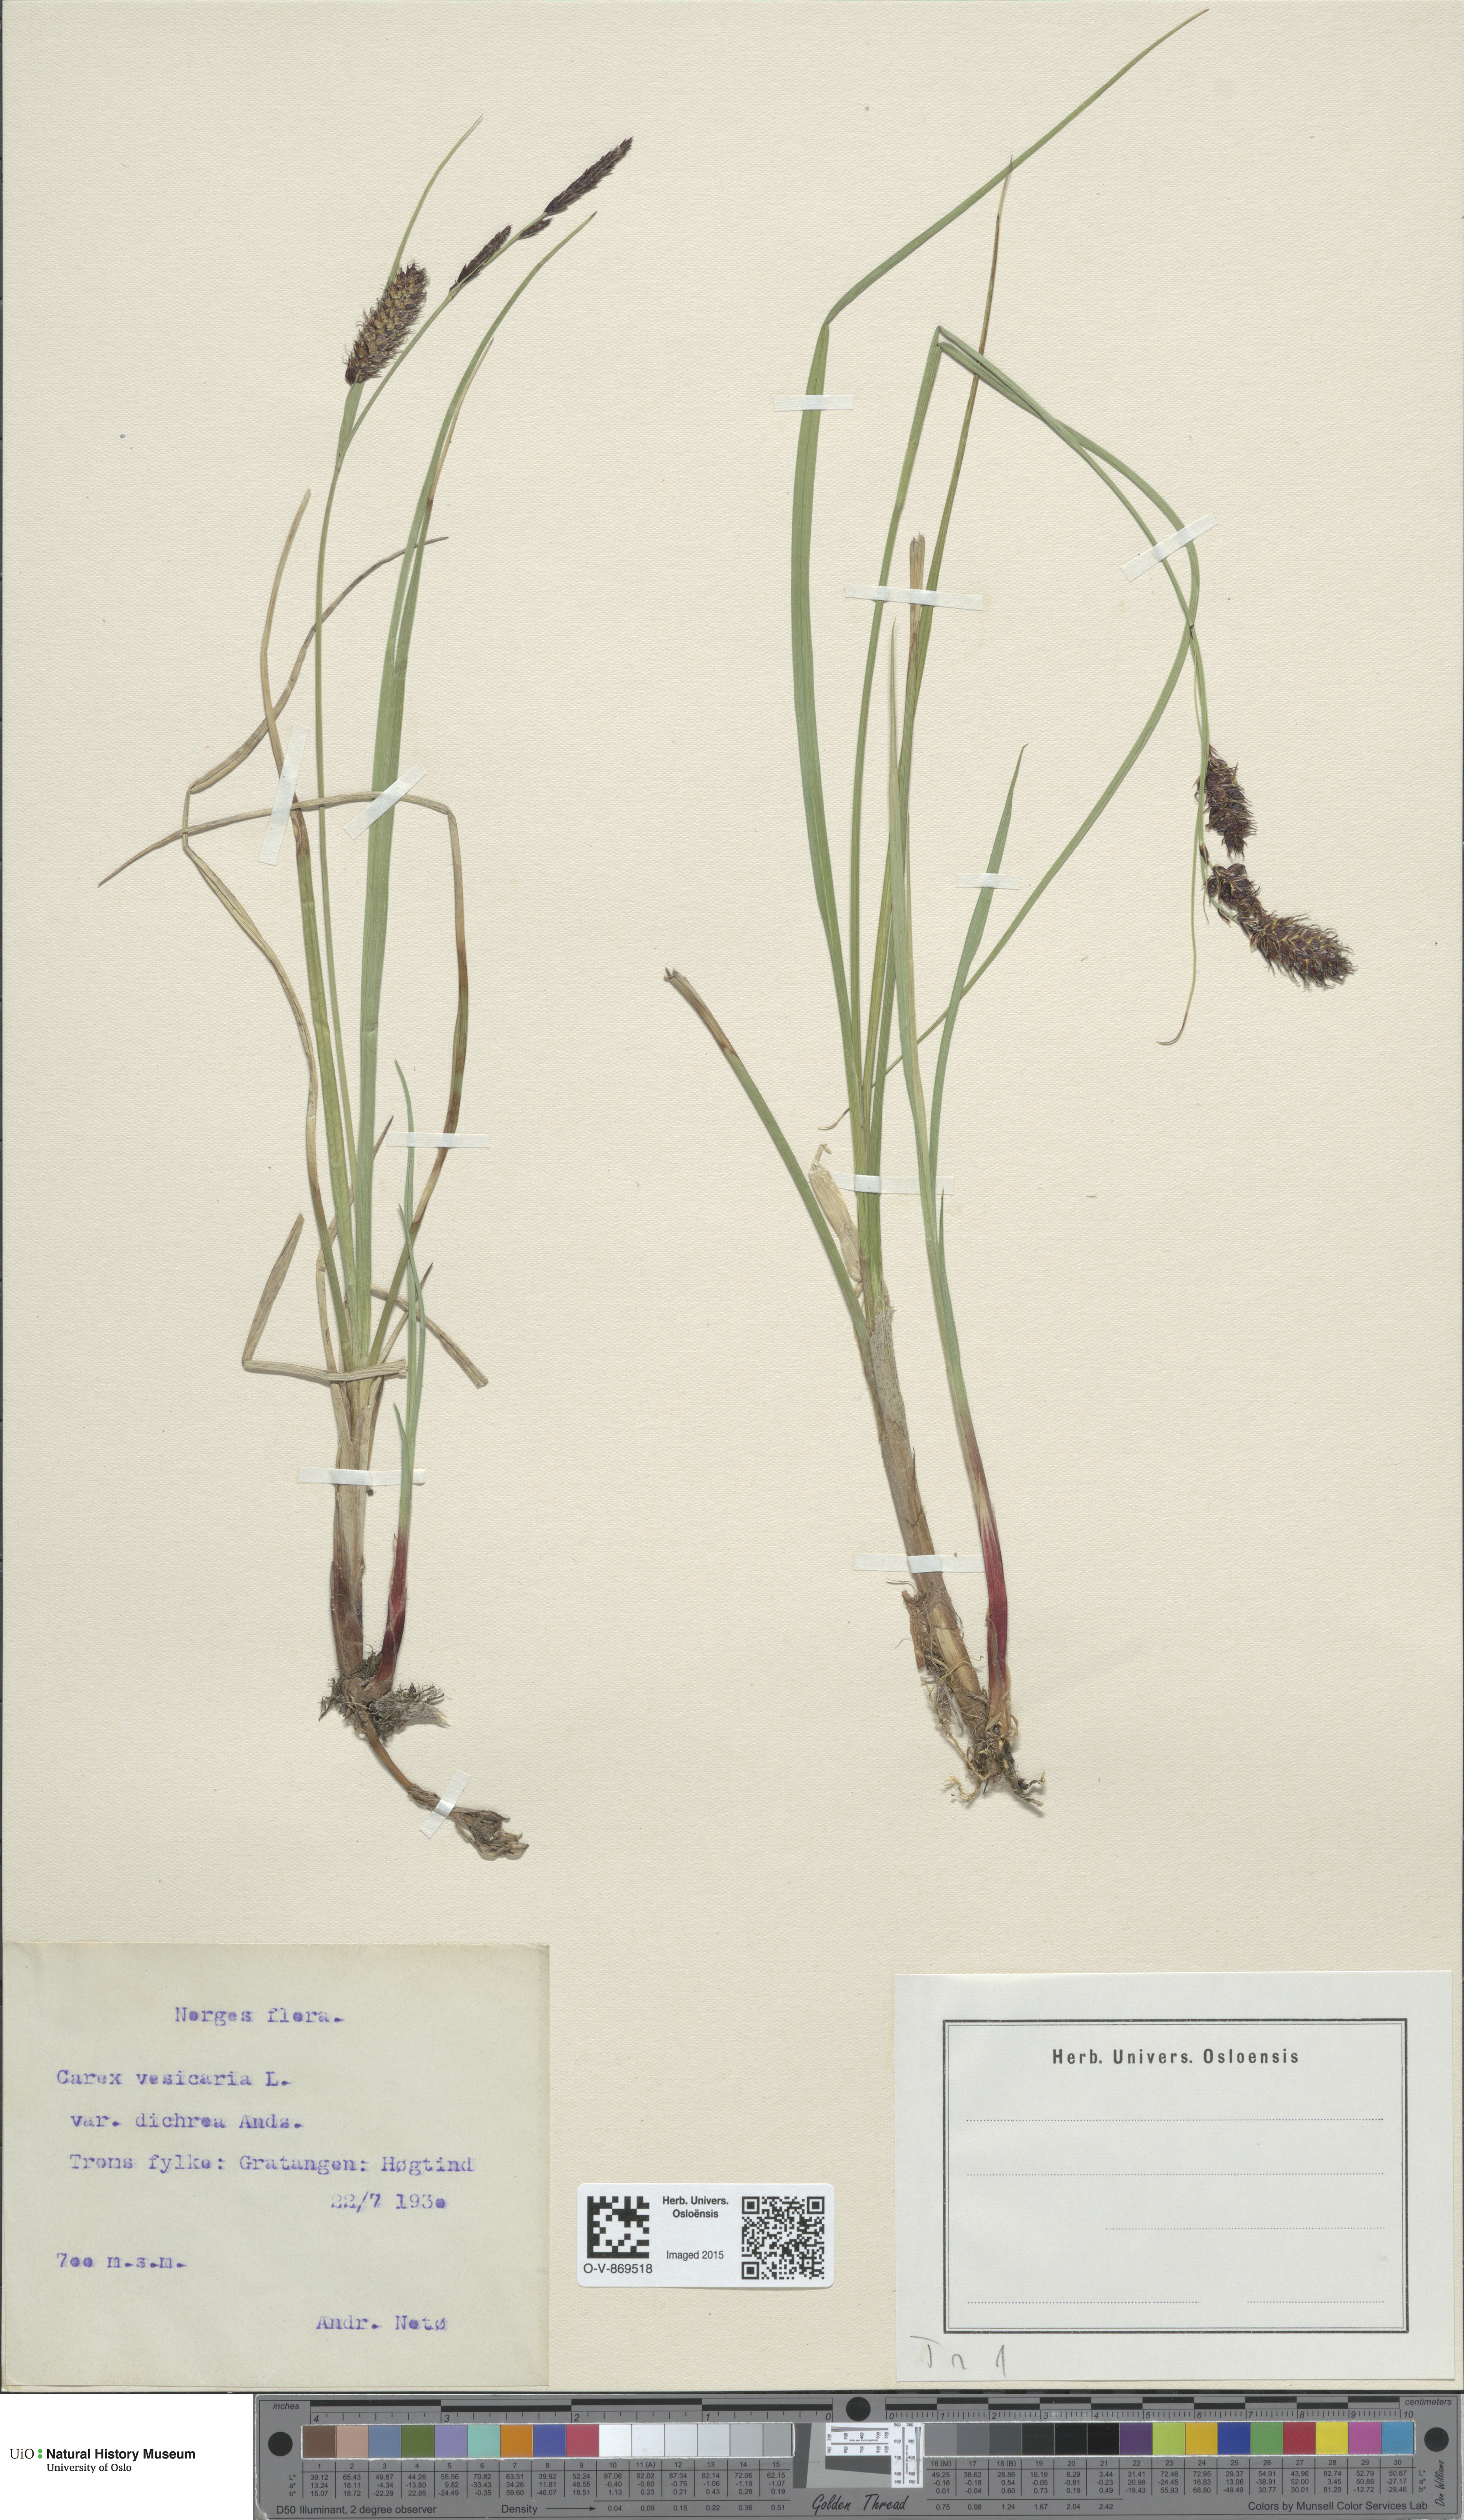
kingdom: Plantae
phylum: Tracheophyta
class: Liliopsida
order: Poales
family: Cyperaceae
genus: Carex
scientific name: Carex vesicaria
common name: Bladder-sedge
